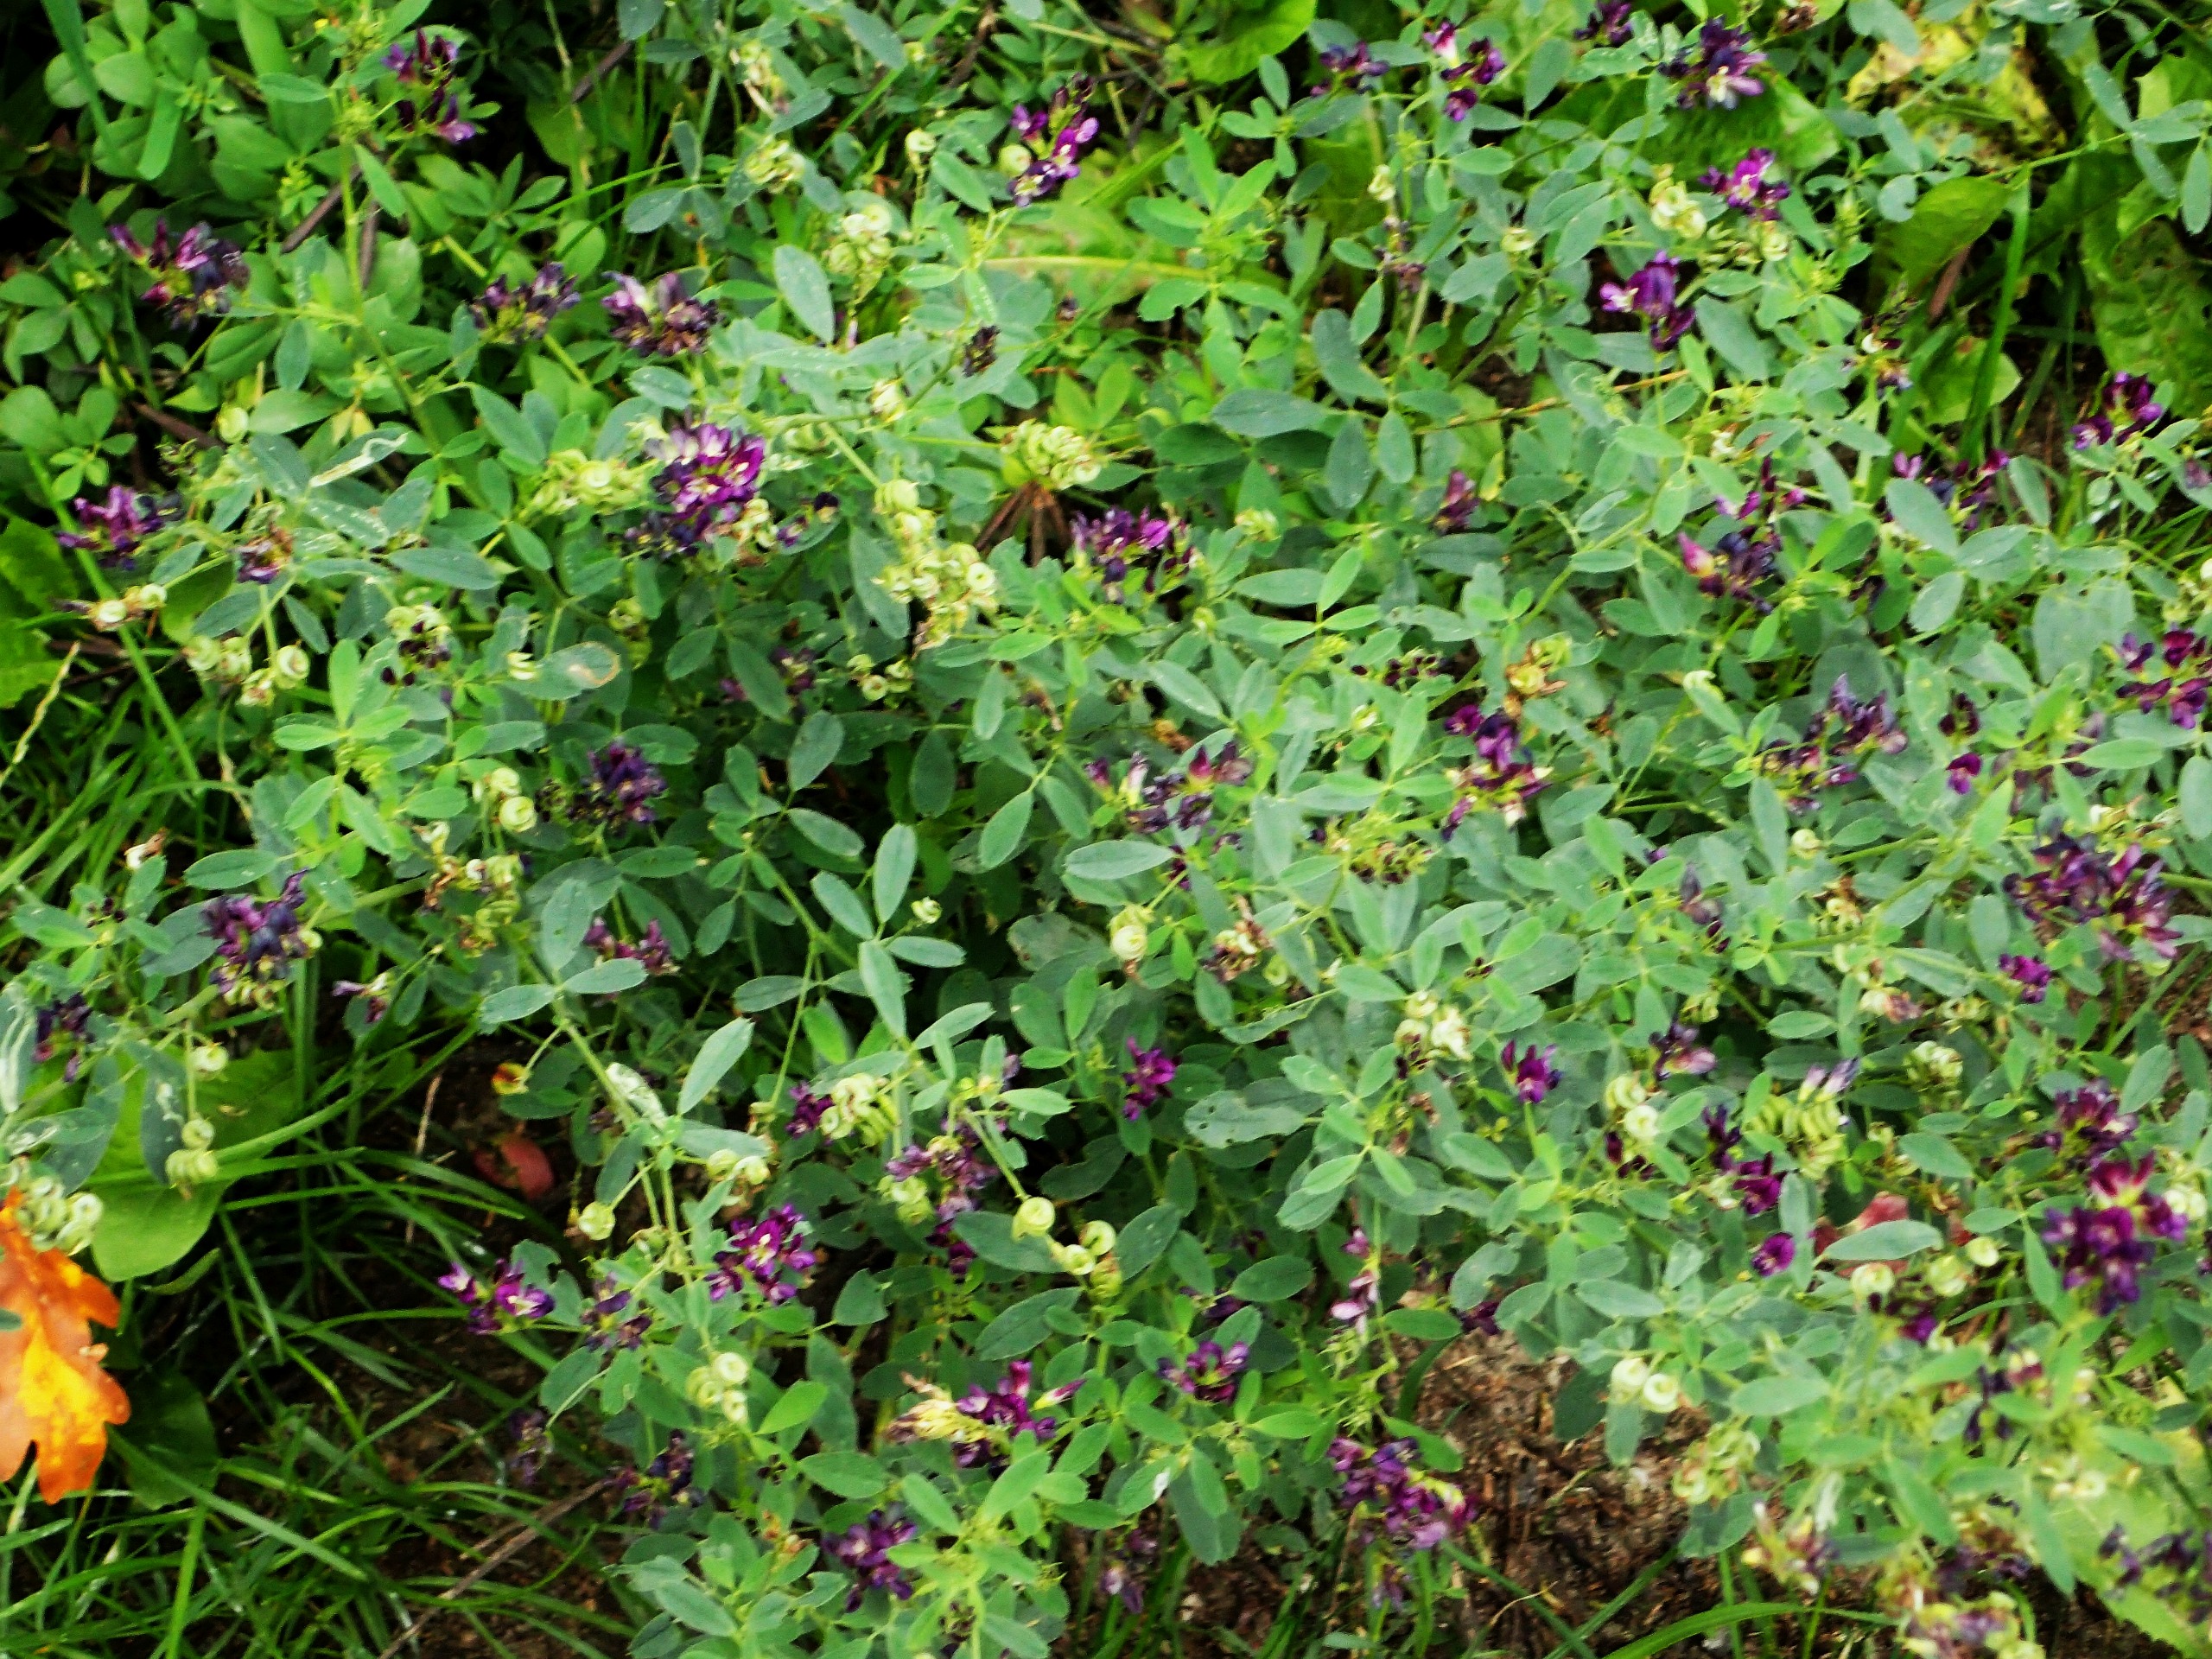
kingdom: Plantae
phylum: Tracheophyta
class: Magnoliopsida
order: Fabales
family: Fabaceae
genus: Medicago
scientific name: Medicago sativa
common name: Lucerne
